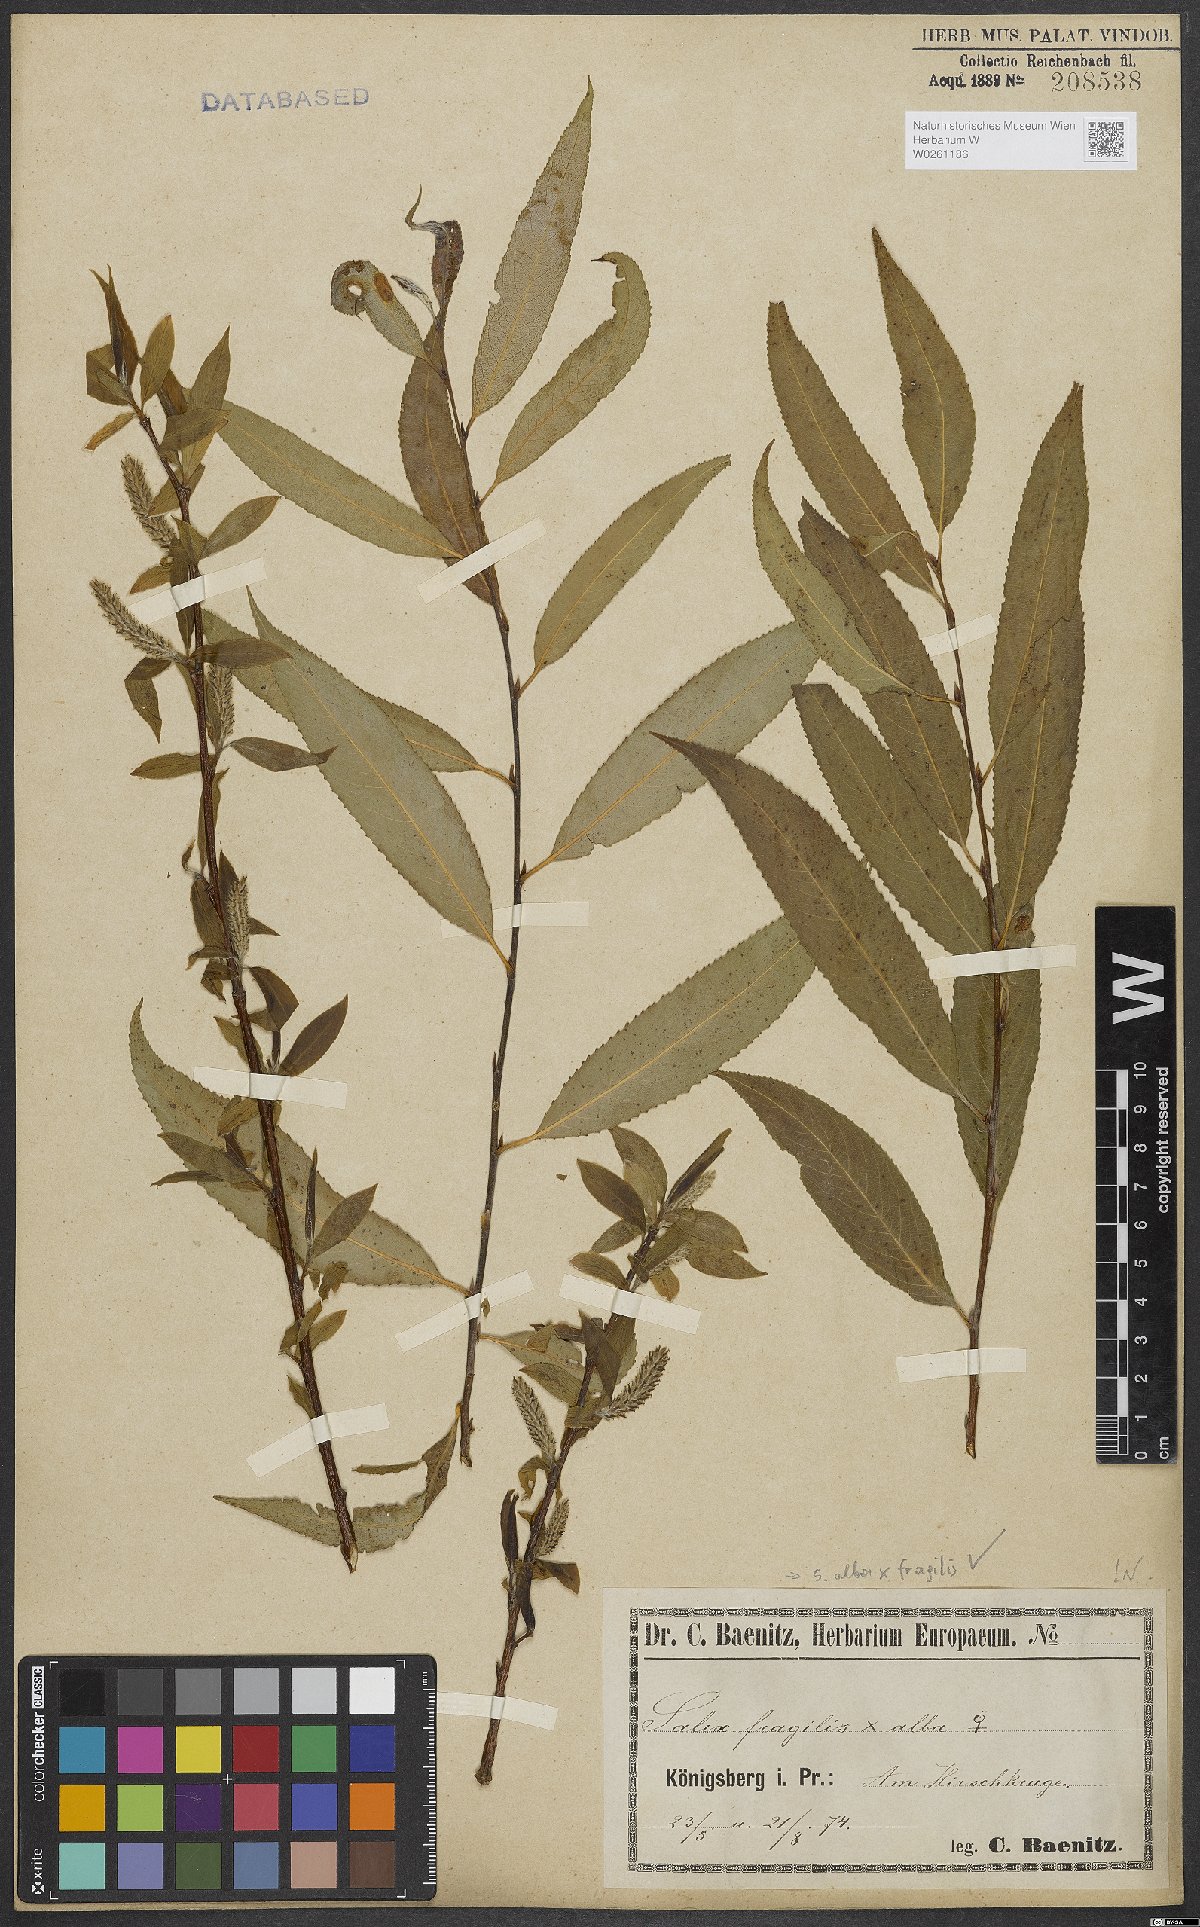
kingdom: Plantae
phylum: Tracheophyta
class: Magnoliopsida
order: Malpighiales
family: Salicaceae
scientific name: Salicaceae
